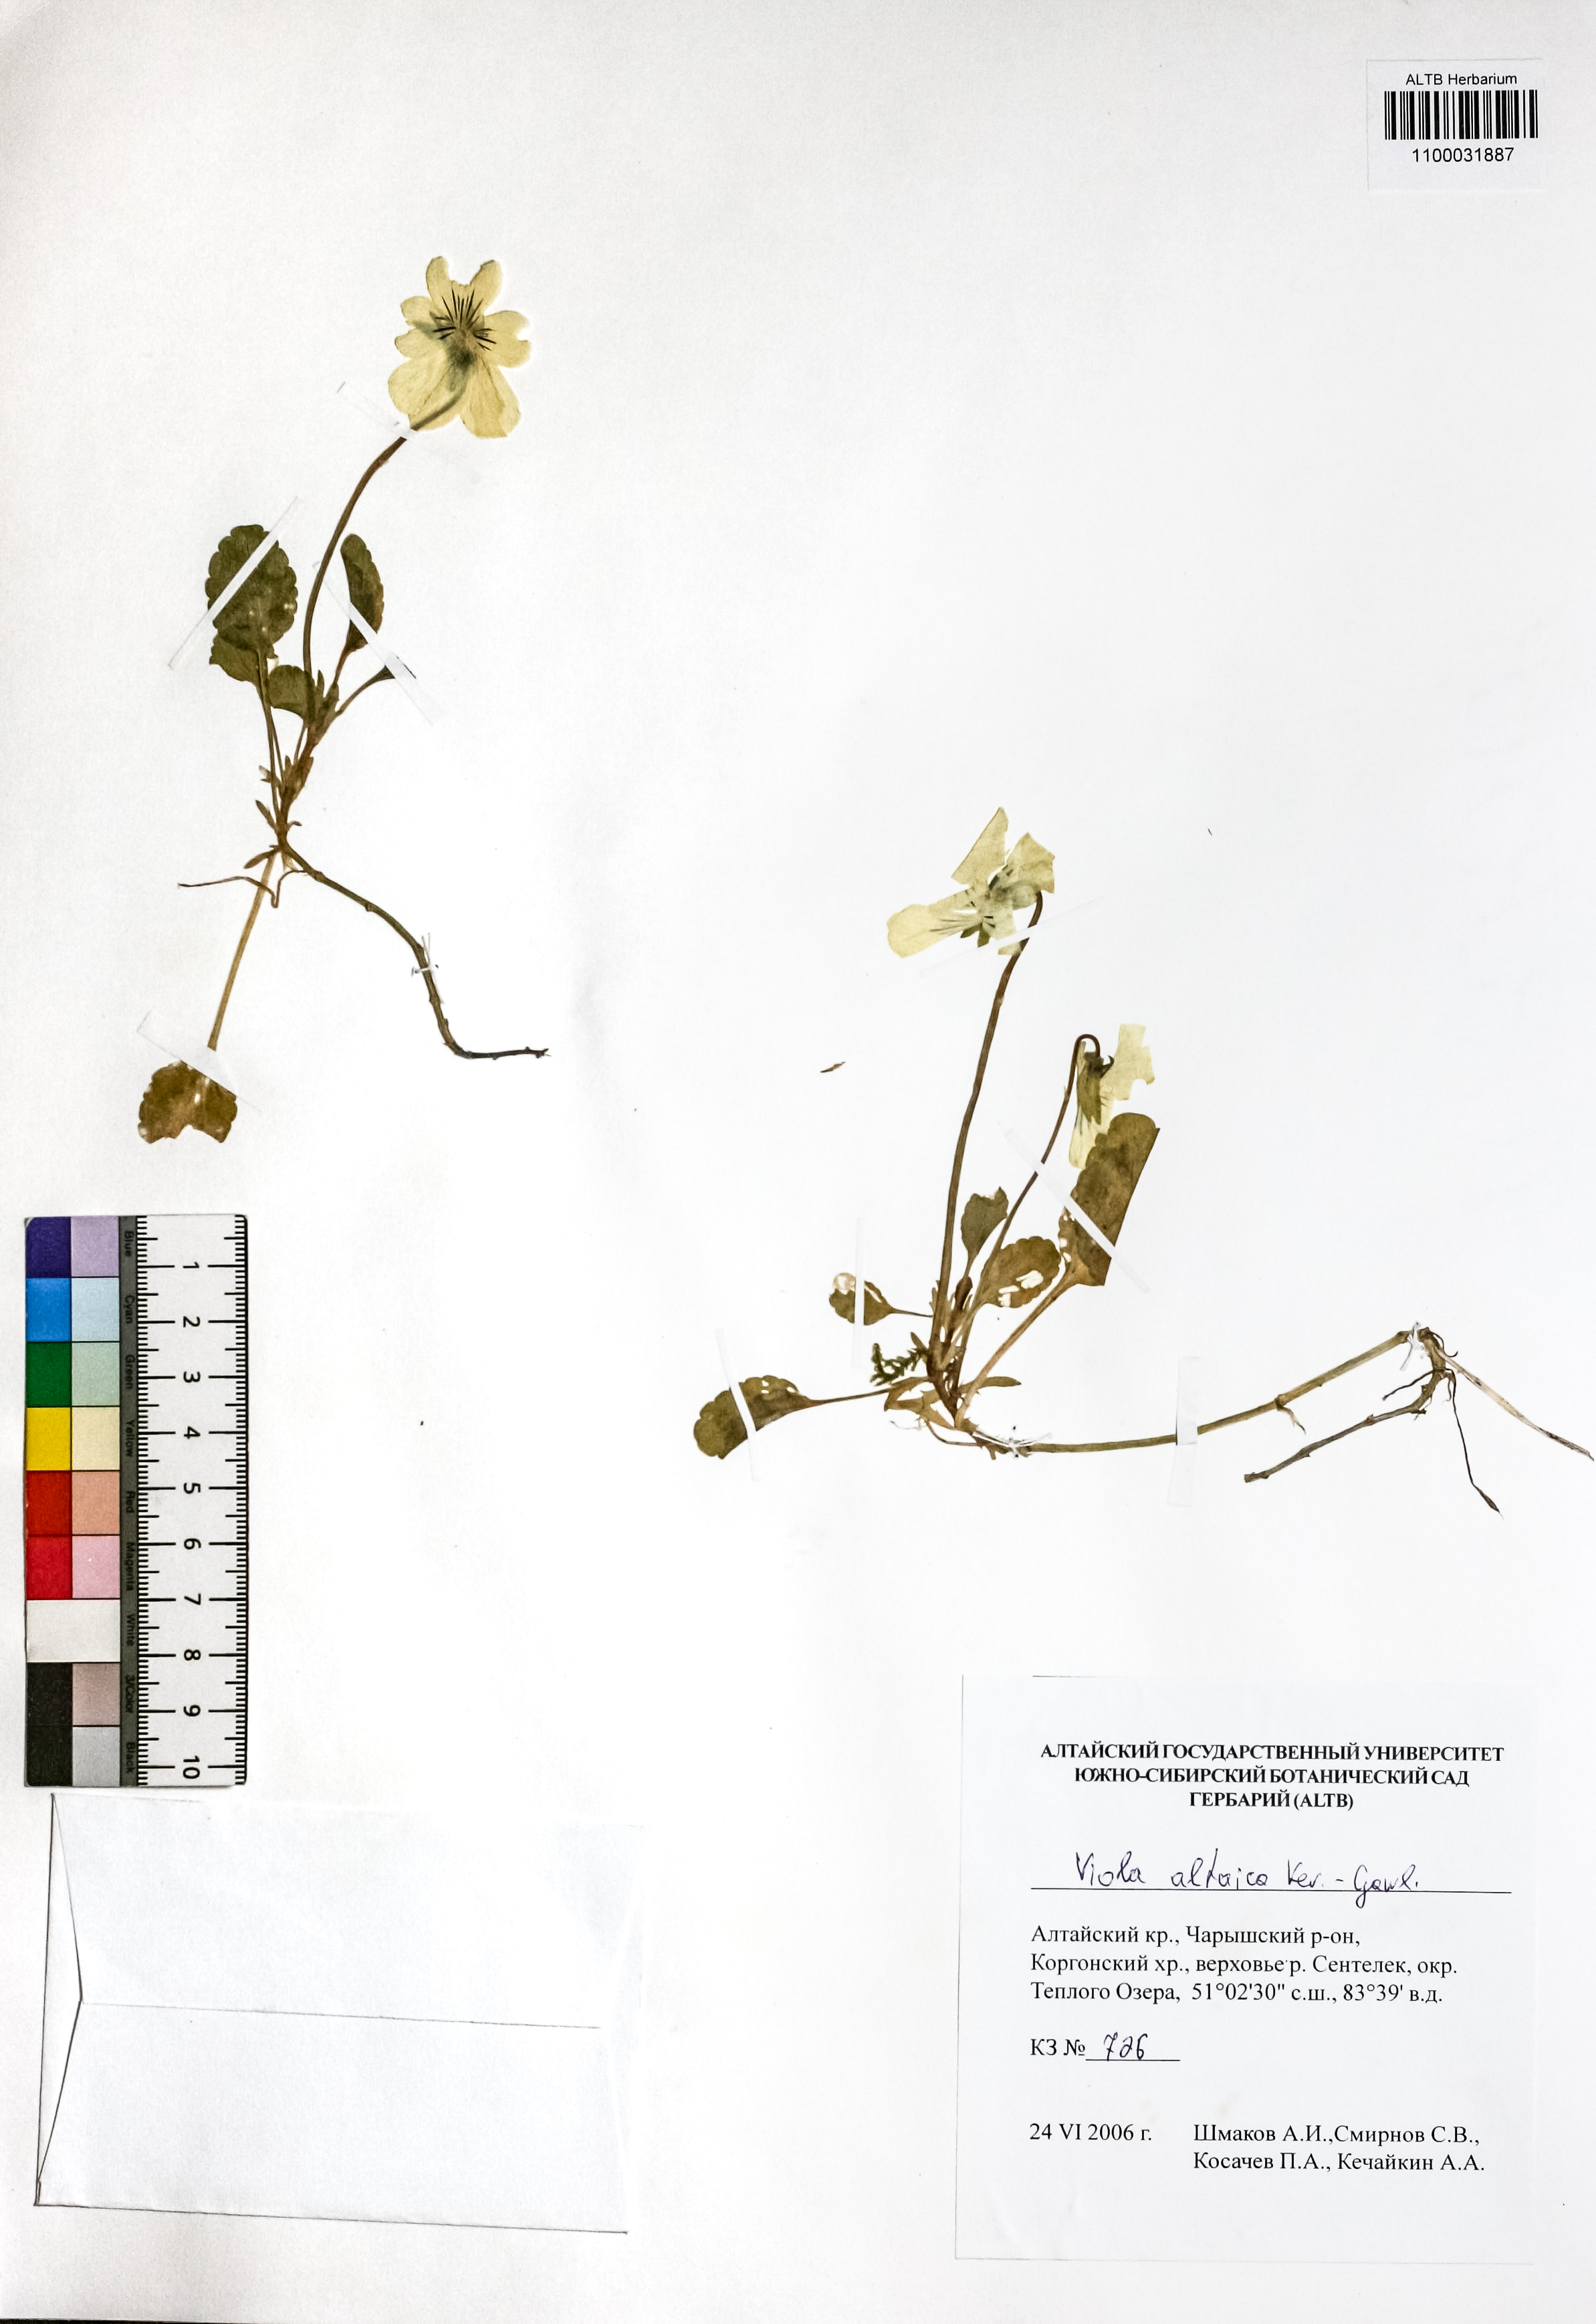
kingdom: Plantae
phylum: Tracheophyta
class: Magnoliopsida
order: Malpighiales
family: Violaceae
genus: Viola
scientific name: Viola altaica
